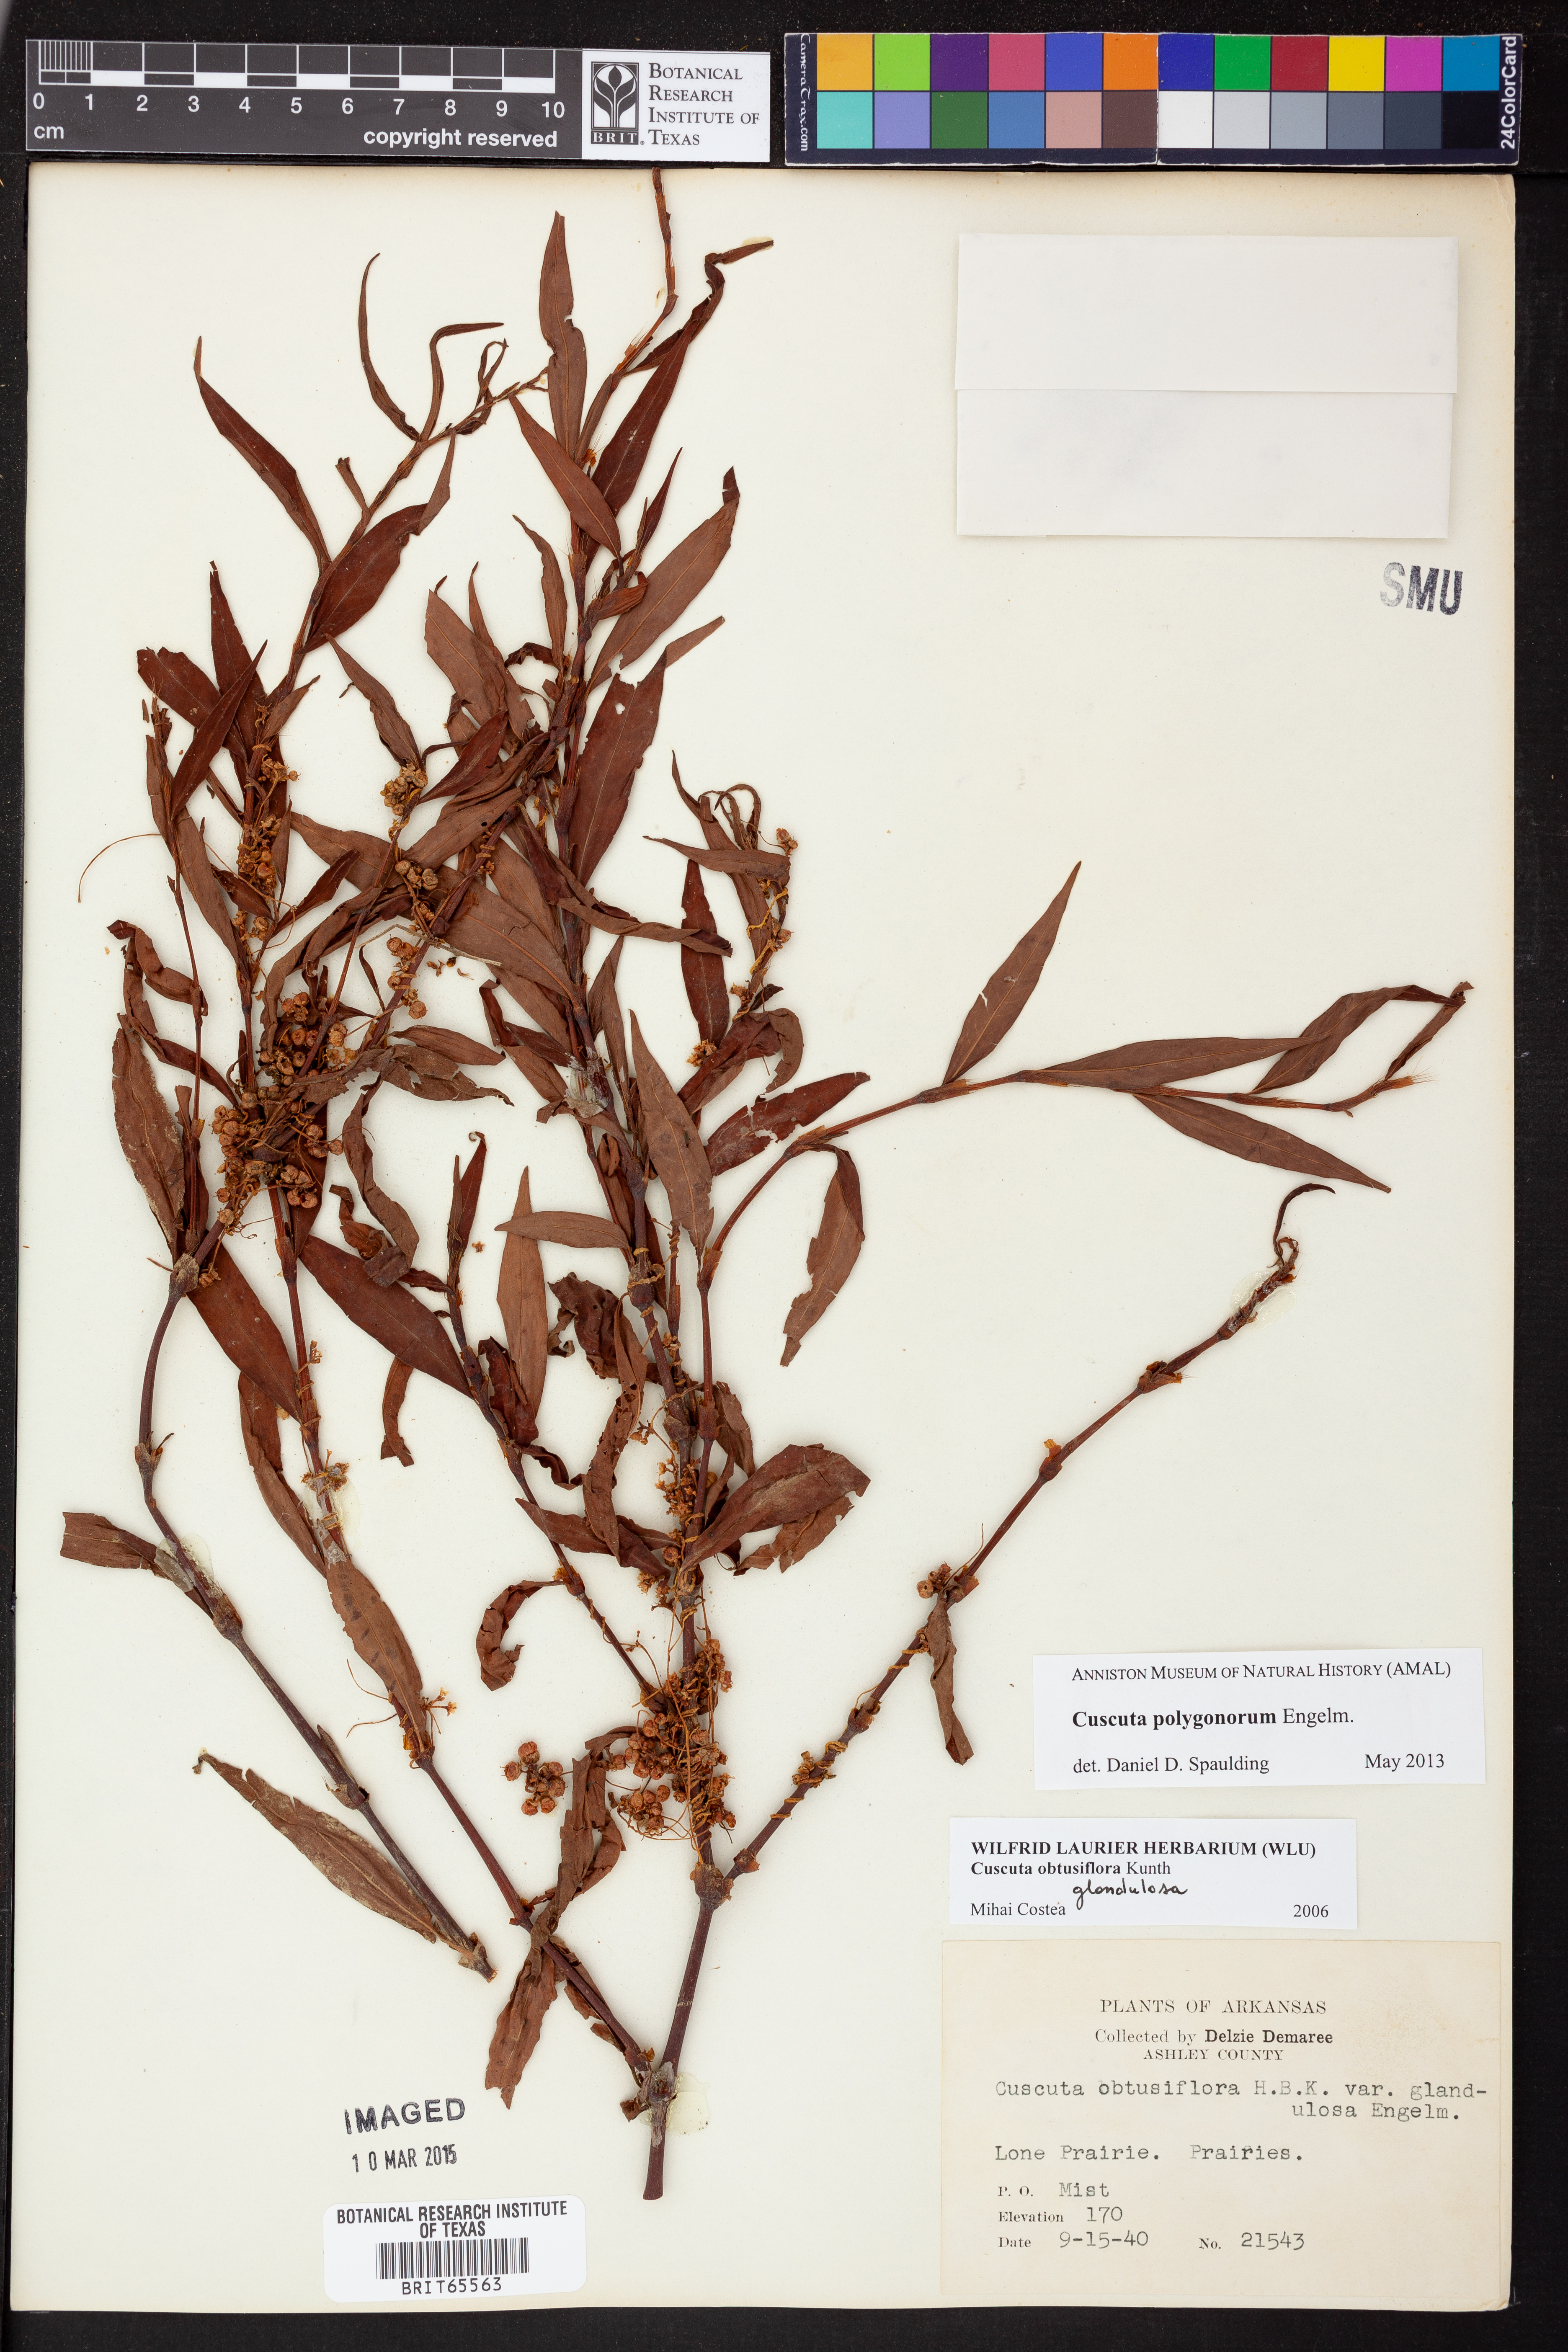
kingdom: Plantae
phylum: Tracheophyta
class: Magnoliopsida
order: Solanales
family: Convolvulaceae
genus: Cuscuta
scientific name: Cuscuta polygonorum
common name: Polygonum dodder
